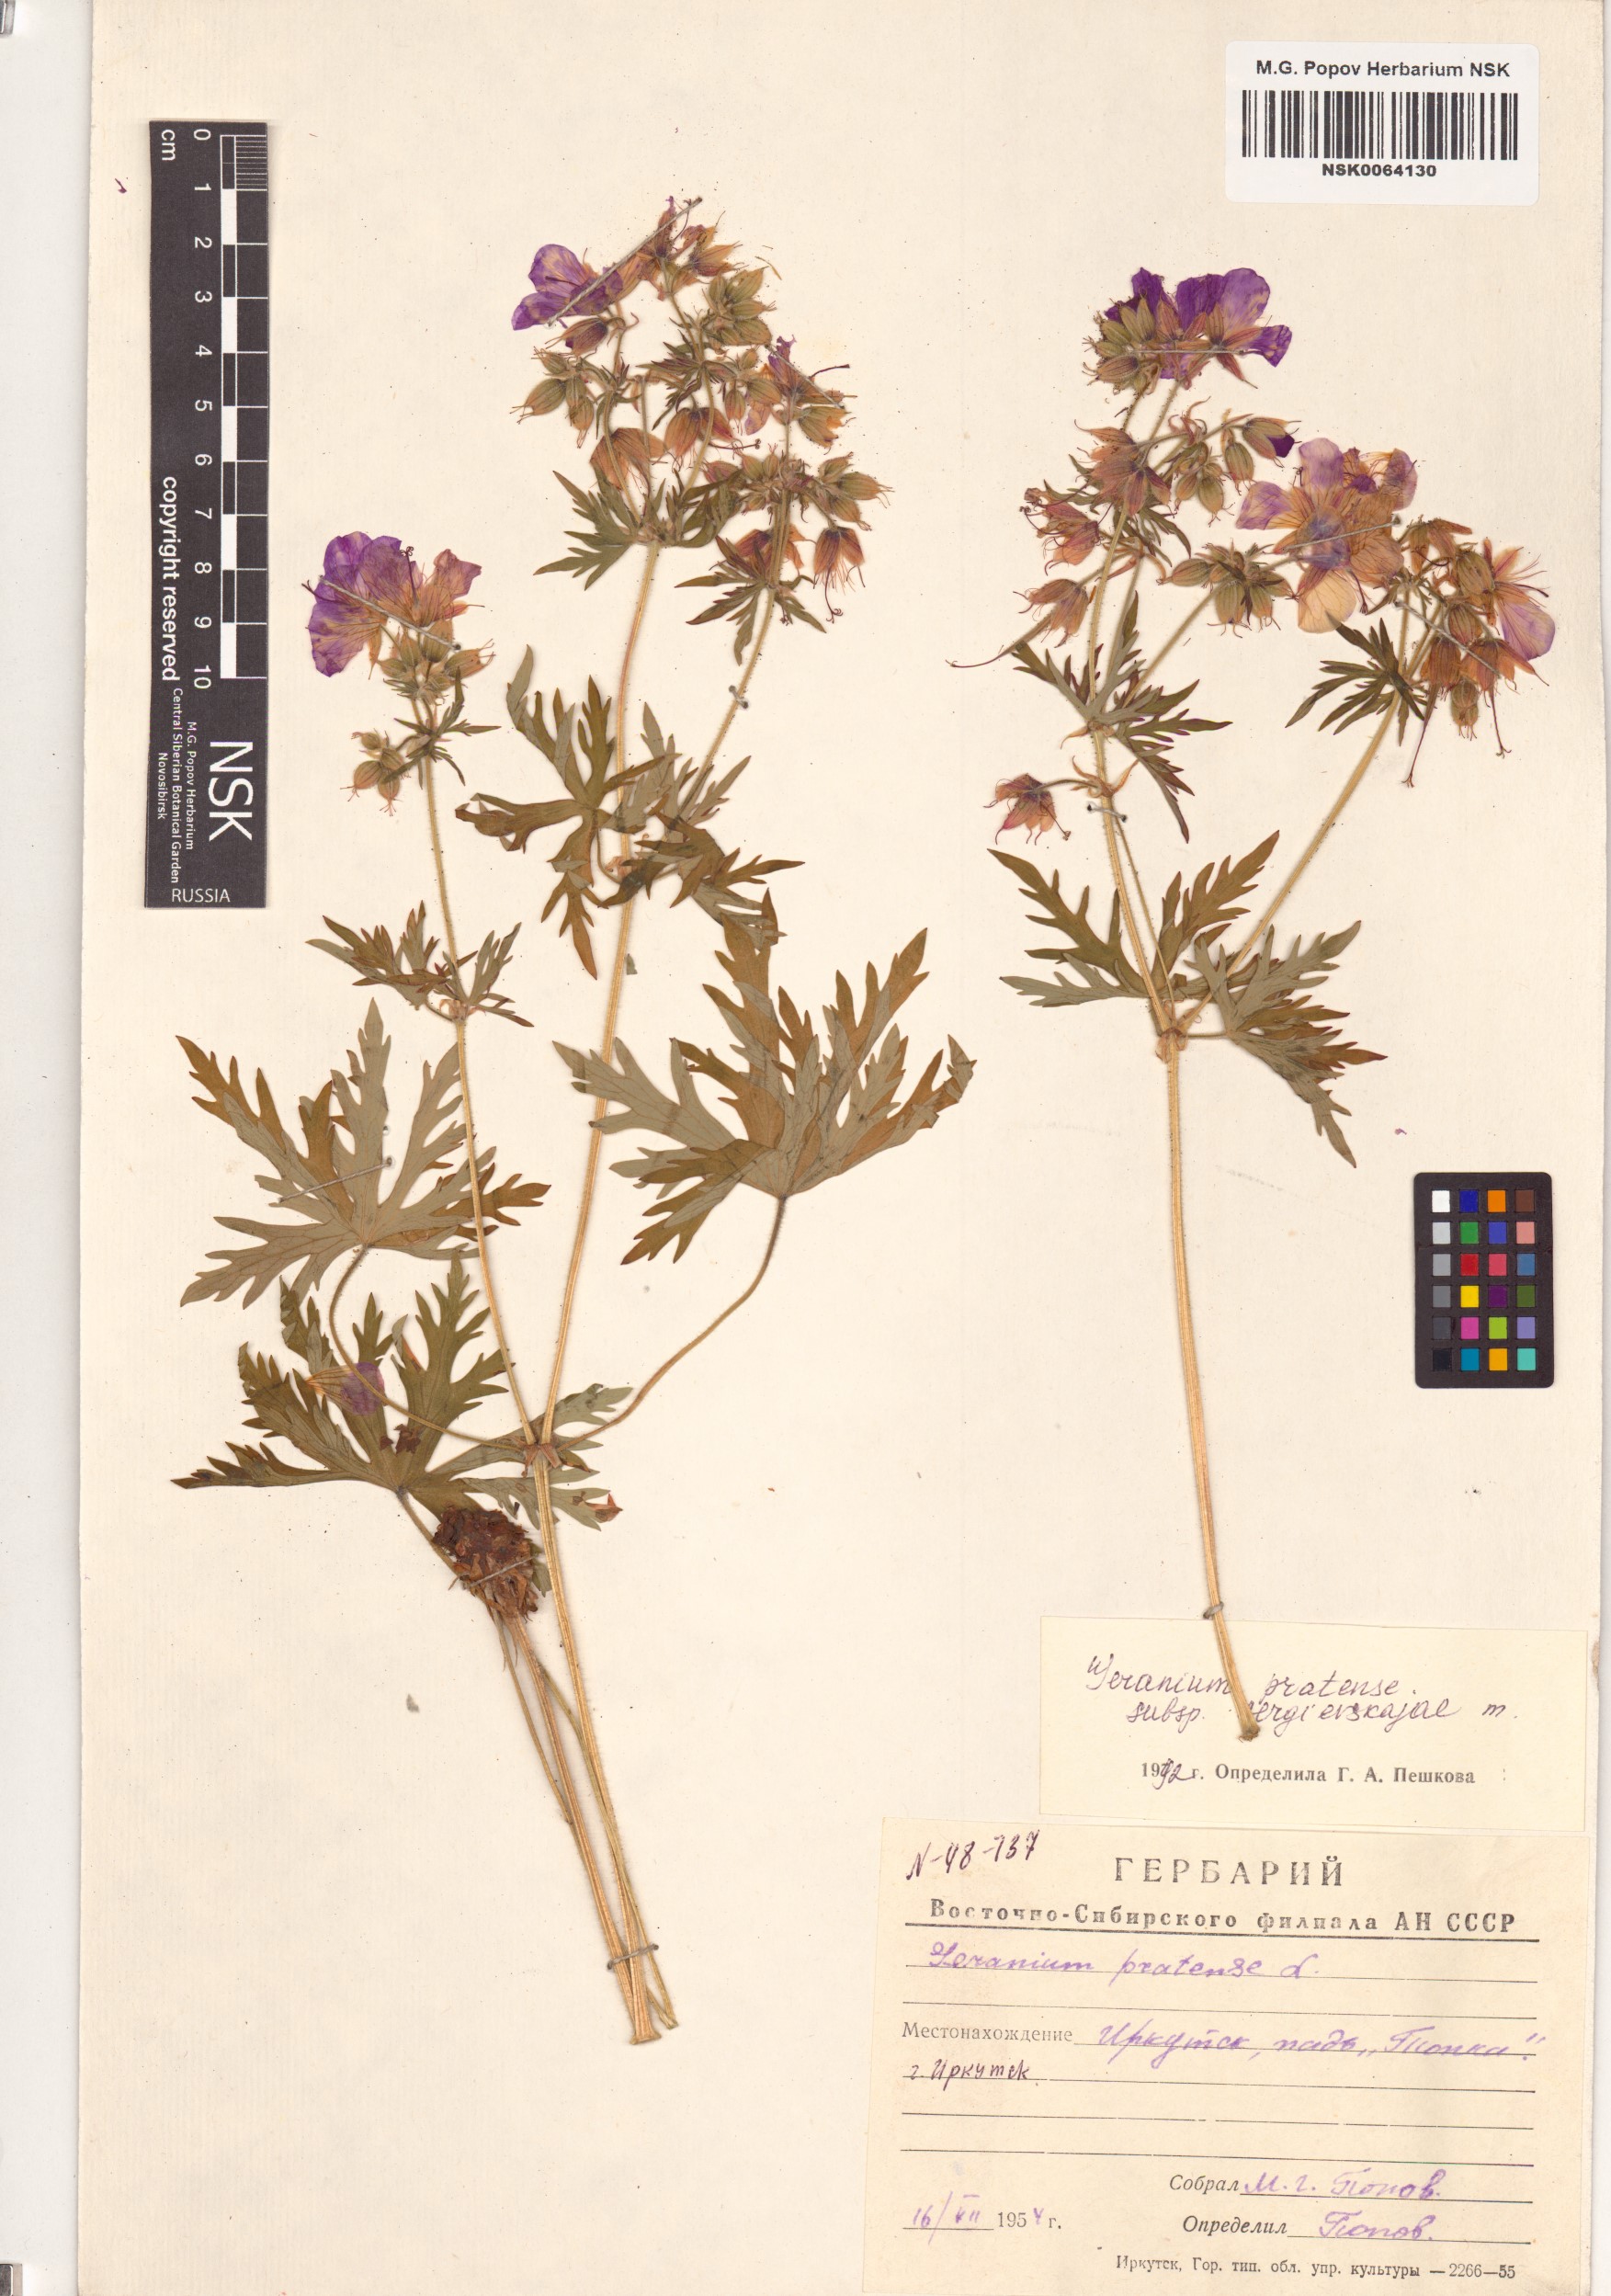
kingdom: Plantae
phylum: Tracheophyta
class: Magnoliopsida
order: Geraniales
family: Geraniaceae
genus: Geranium
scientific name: Geranium pratense
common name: Meadow crane's-bill
